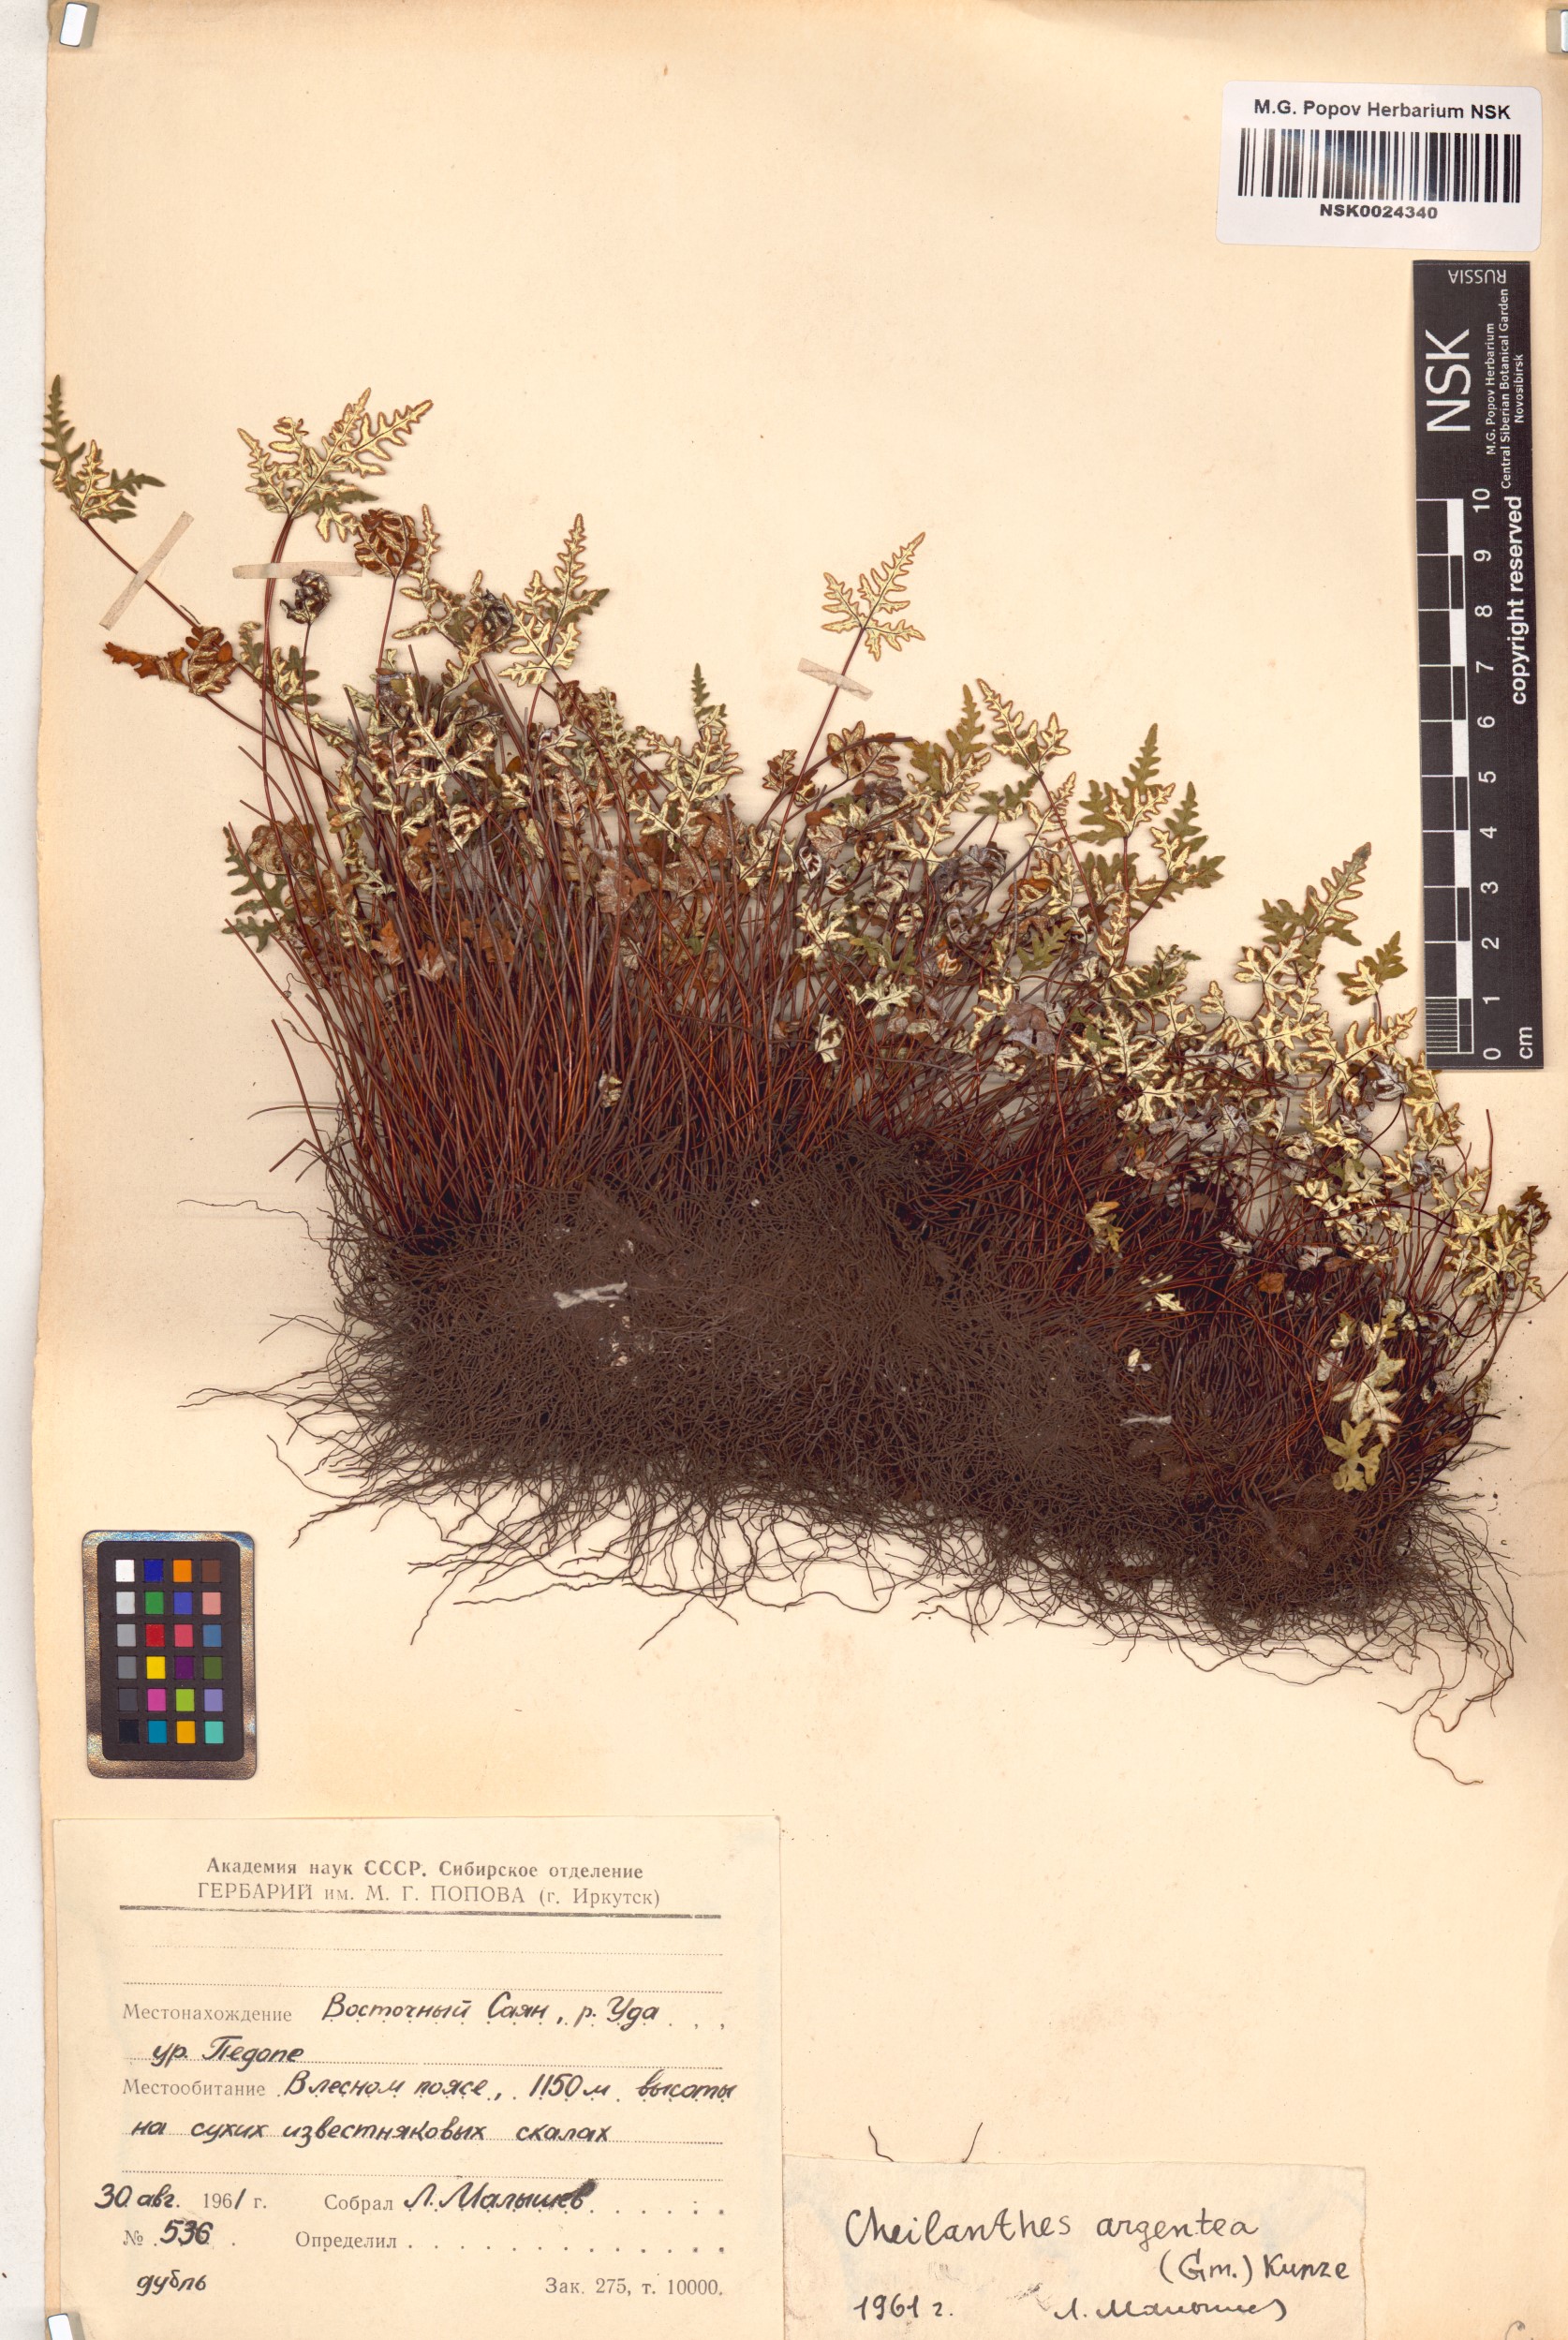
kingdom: Plantae
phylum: Tracheophyta
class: Polypodiopsida
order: Polypodiales
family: Pteridaceae
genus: Aleuritopteris
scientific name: Aleuritopteris argentea
